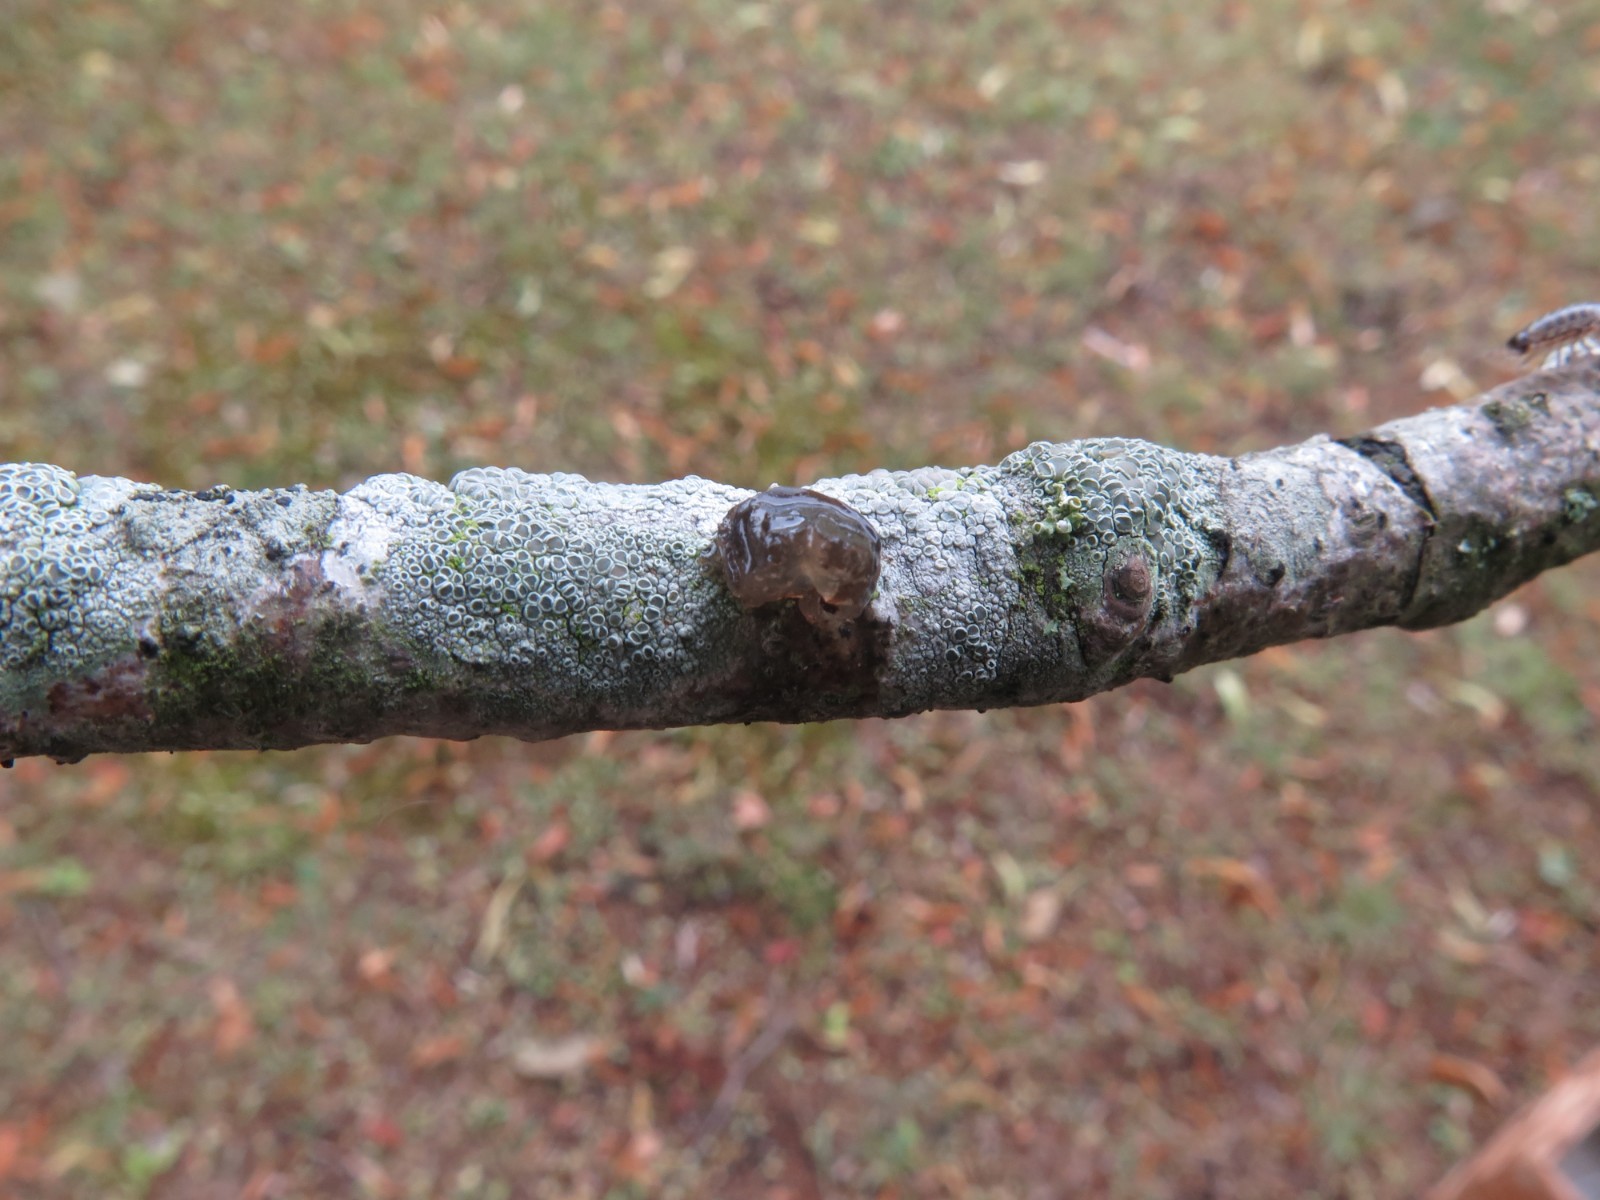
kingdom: Fungi
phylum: Basidiomycota
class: Agaricomycetes
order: Auriculariales
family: Auriculariaceae
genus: Exidia
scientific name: Exidia nigricans
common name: almindelig bævretop
